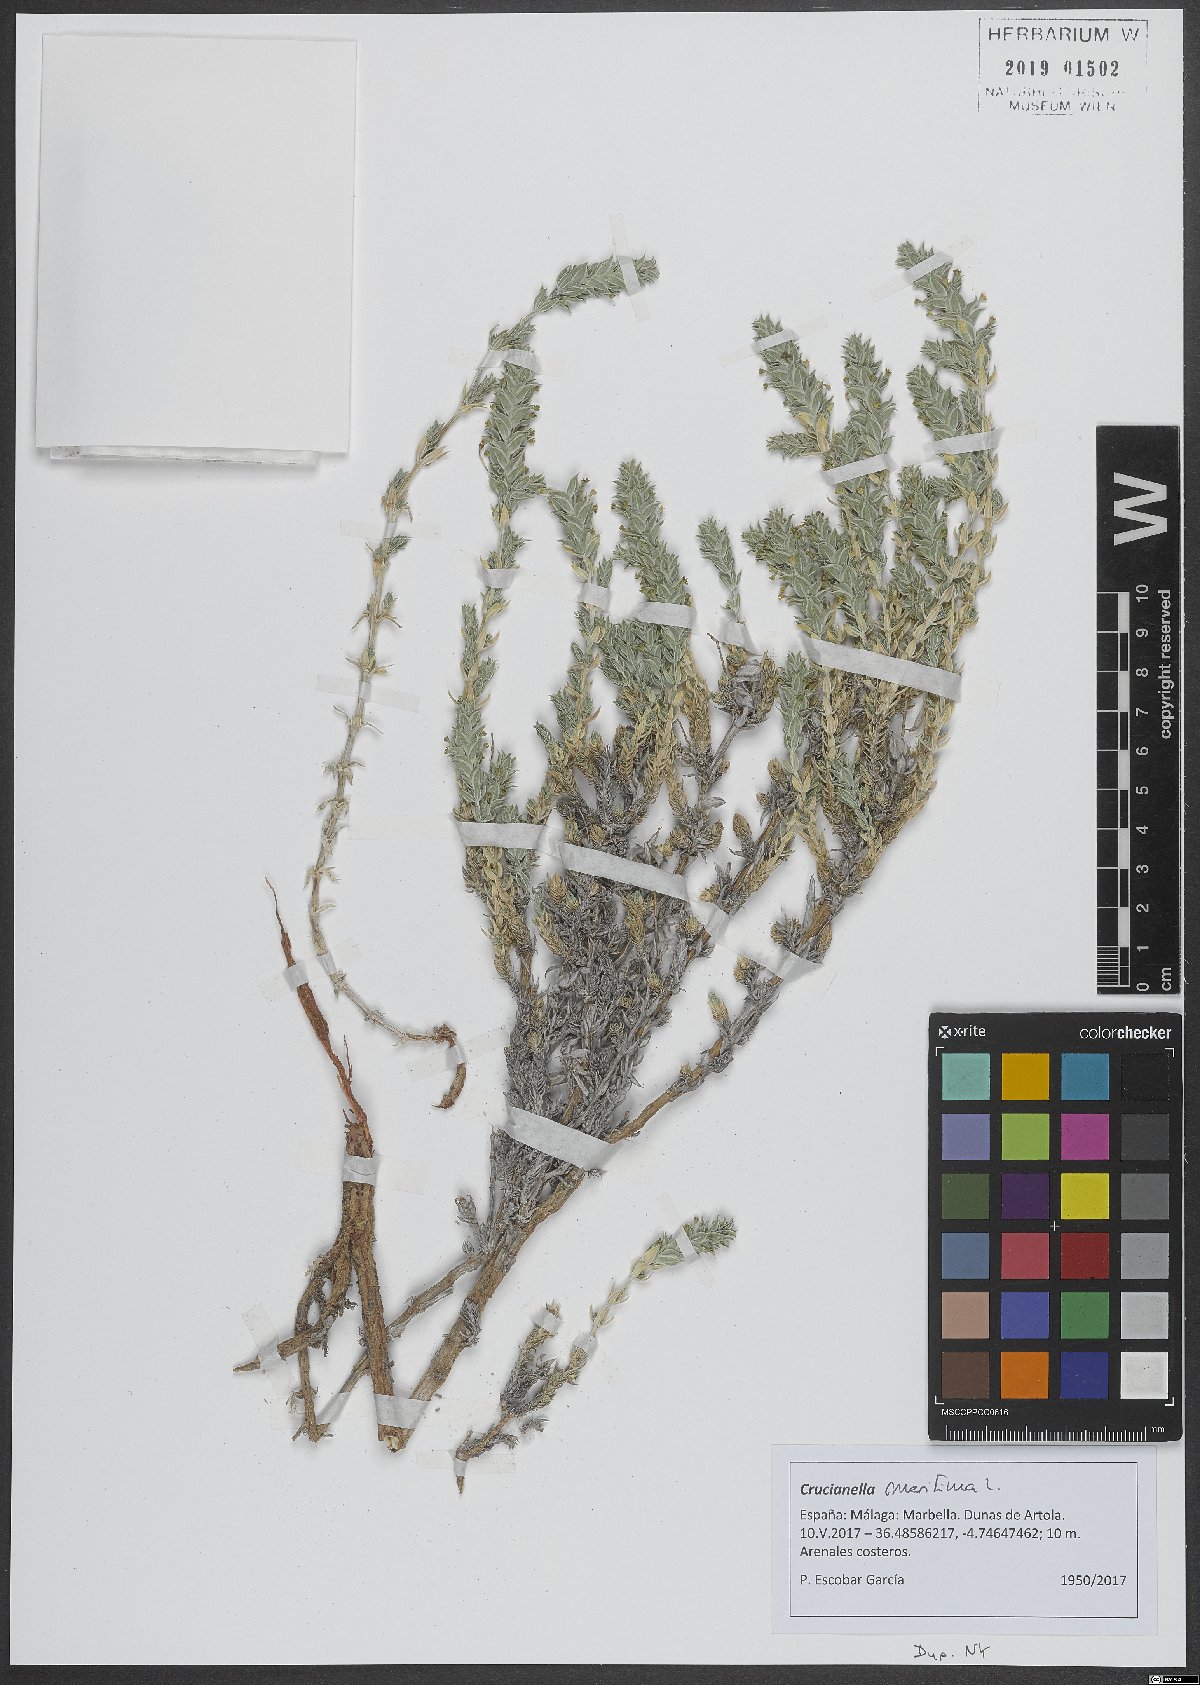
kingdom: Plantae
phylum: Tracheophyta
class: Magnoliopsida
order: Gentianales
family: Rubiaceae
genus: Crucianella
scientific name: Crucianella maritima
